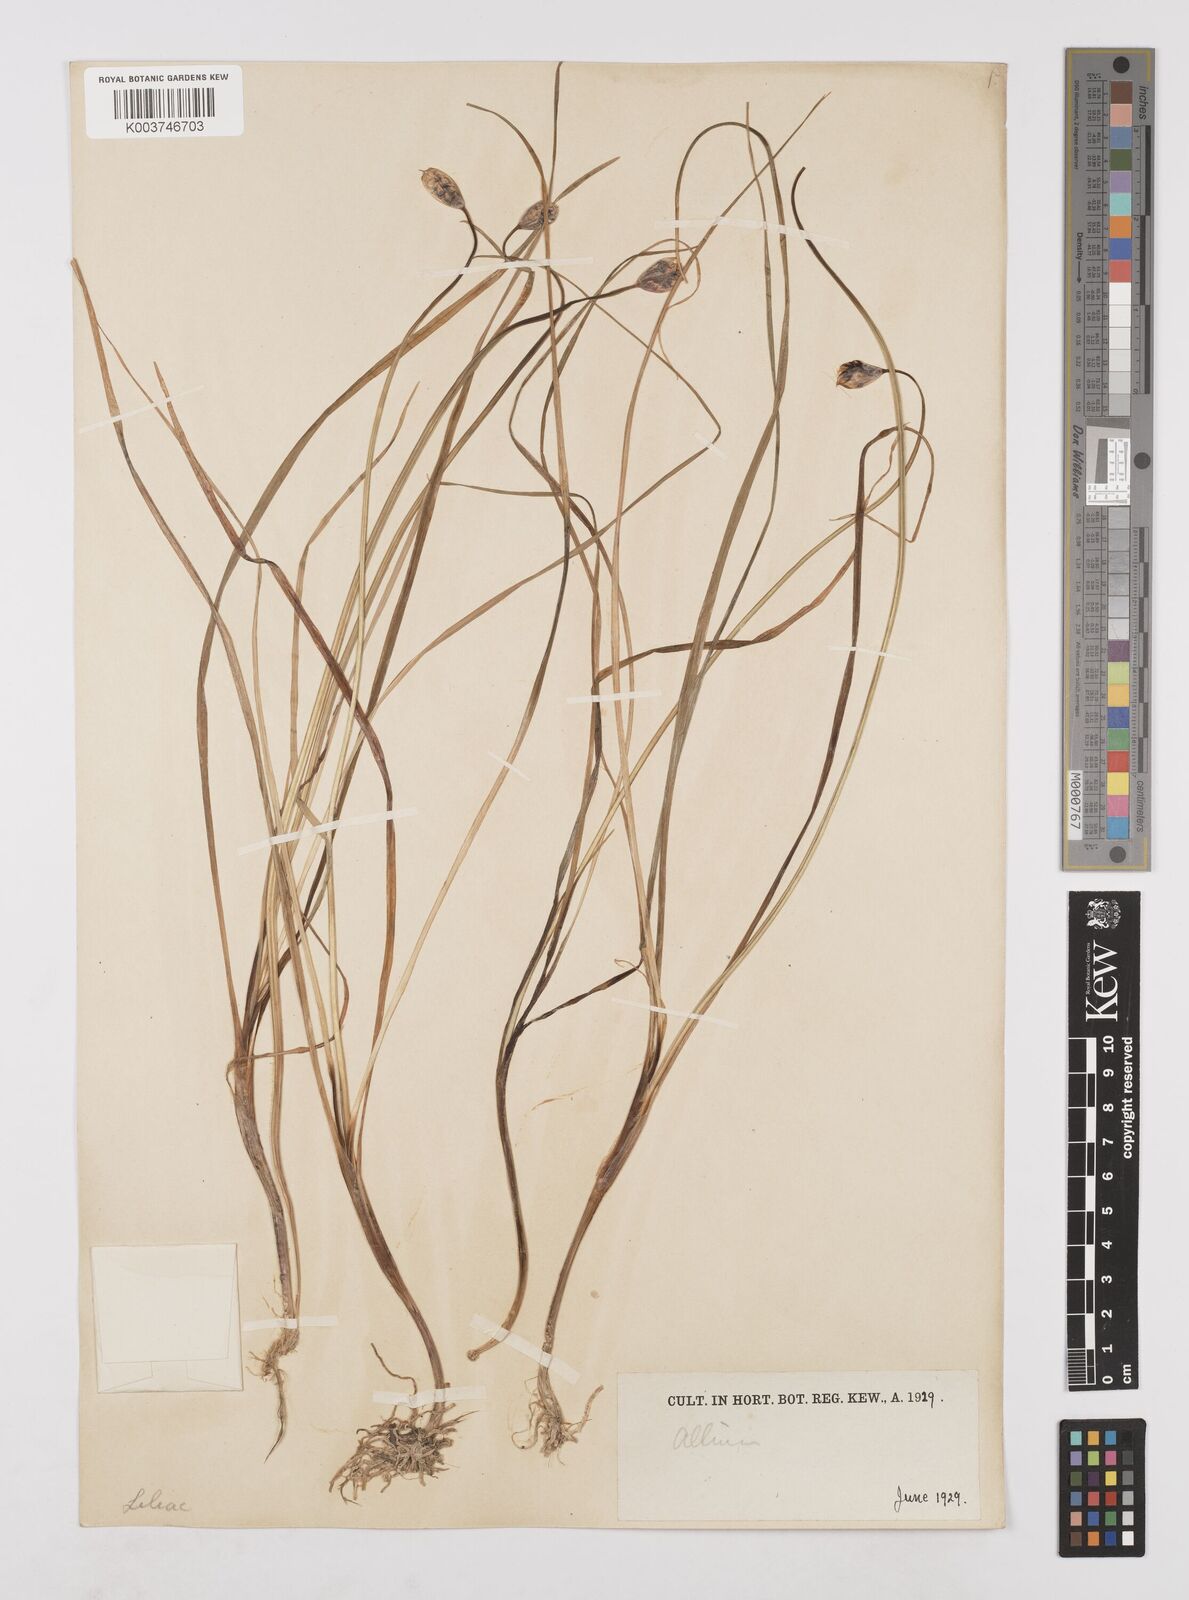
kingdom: Plantae
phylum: Tracheophyta
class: Liliopsida
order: Asparagales
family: Amaryllidaceae
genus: Allium
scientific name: Allium farreri
